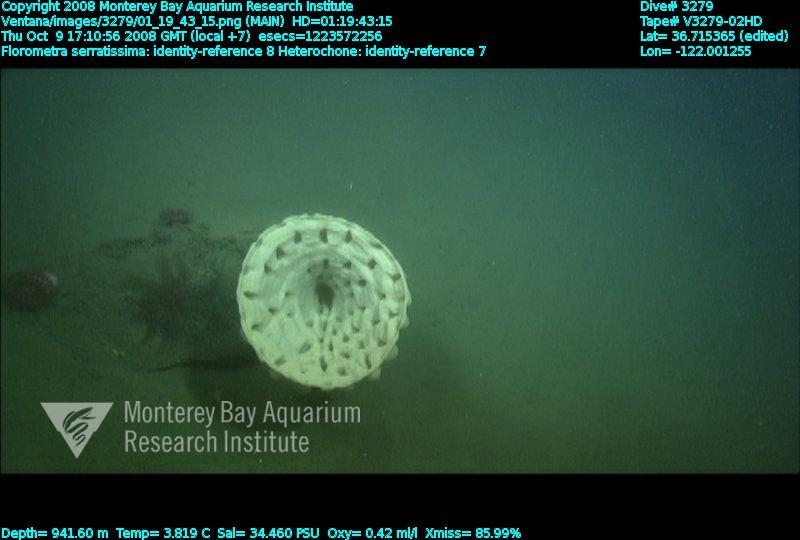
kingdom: Animalia
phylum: Porifera
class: Hexactinellida
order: Sceptrulophora
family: Aphrocallistidae
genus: Heterochone
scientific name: Heterochone
